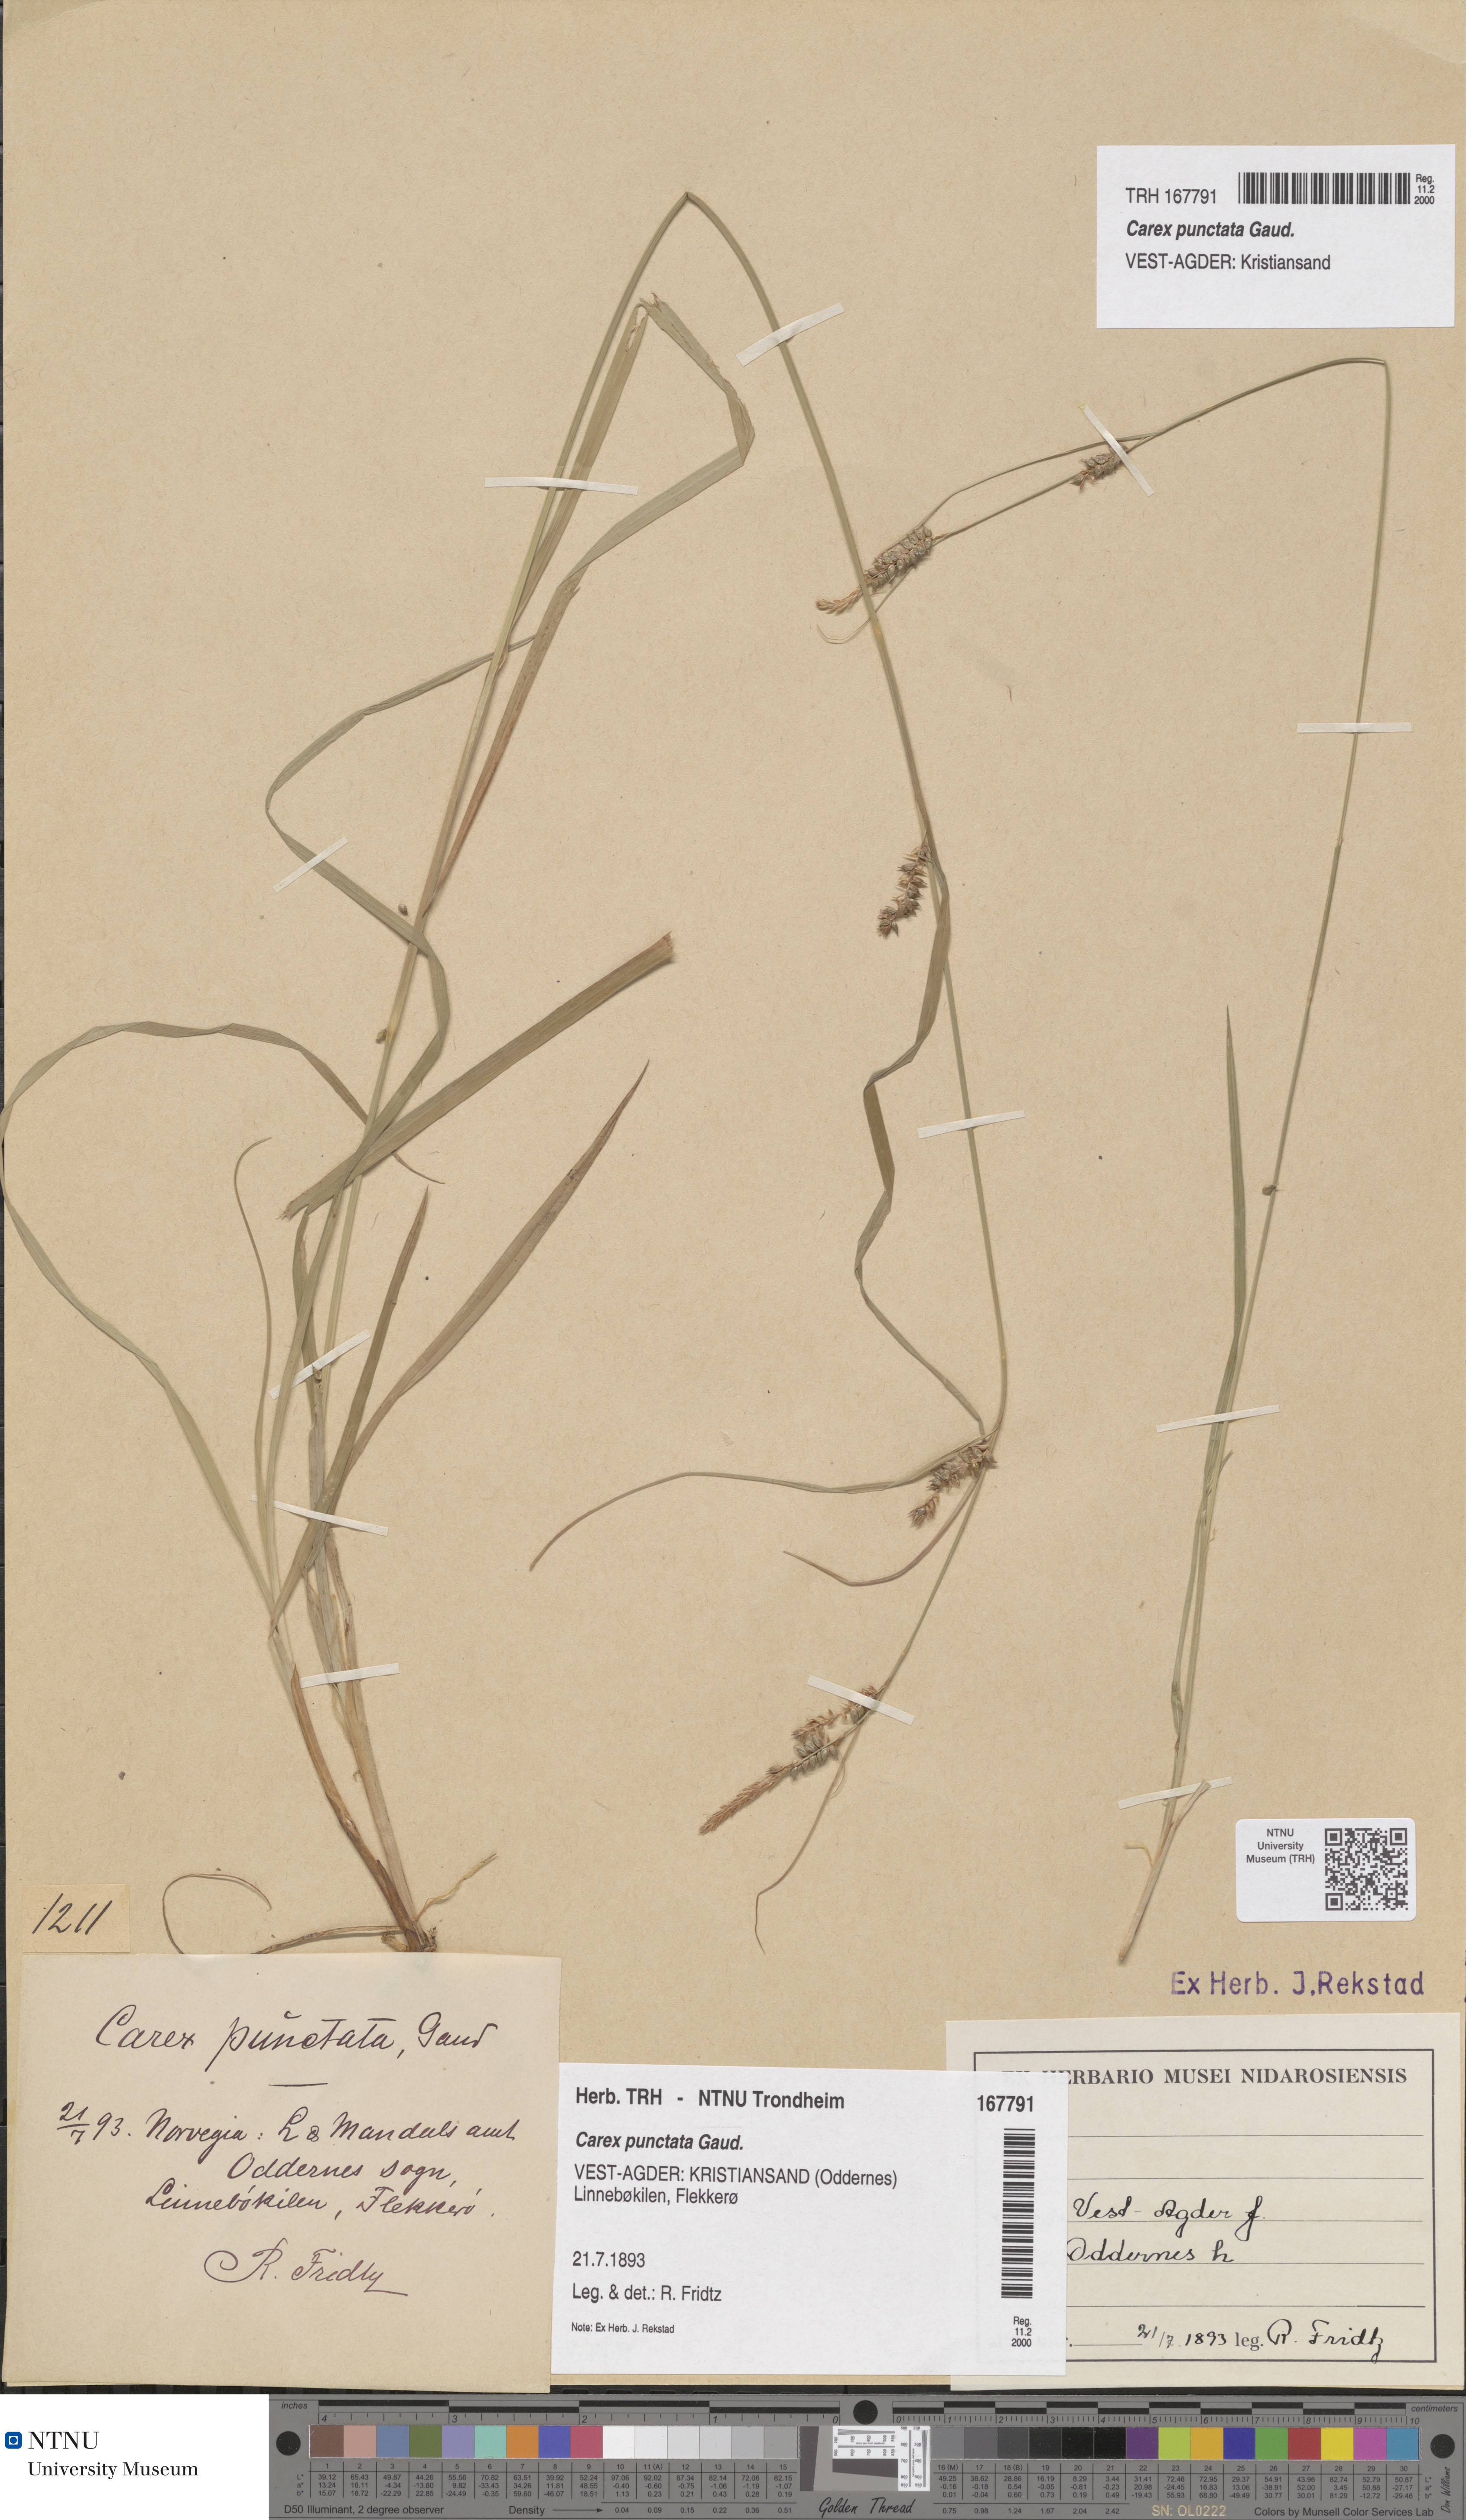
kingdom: Plantae
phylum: Tracheophyta
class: Liliopsida
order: Poales
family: Cyperaceae
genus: Carex
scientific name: Carex punctata
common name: Dotted sedge
